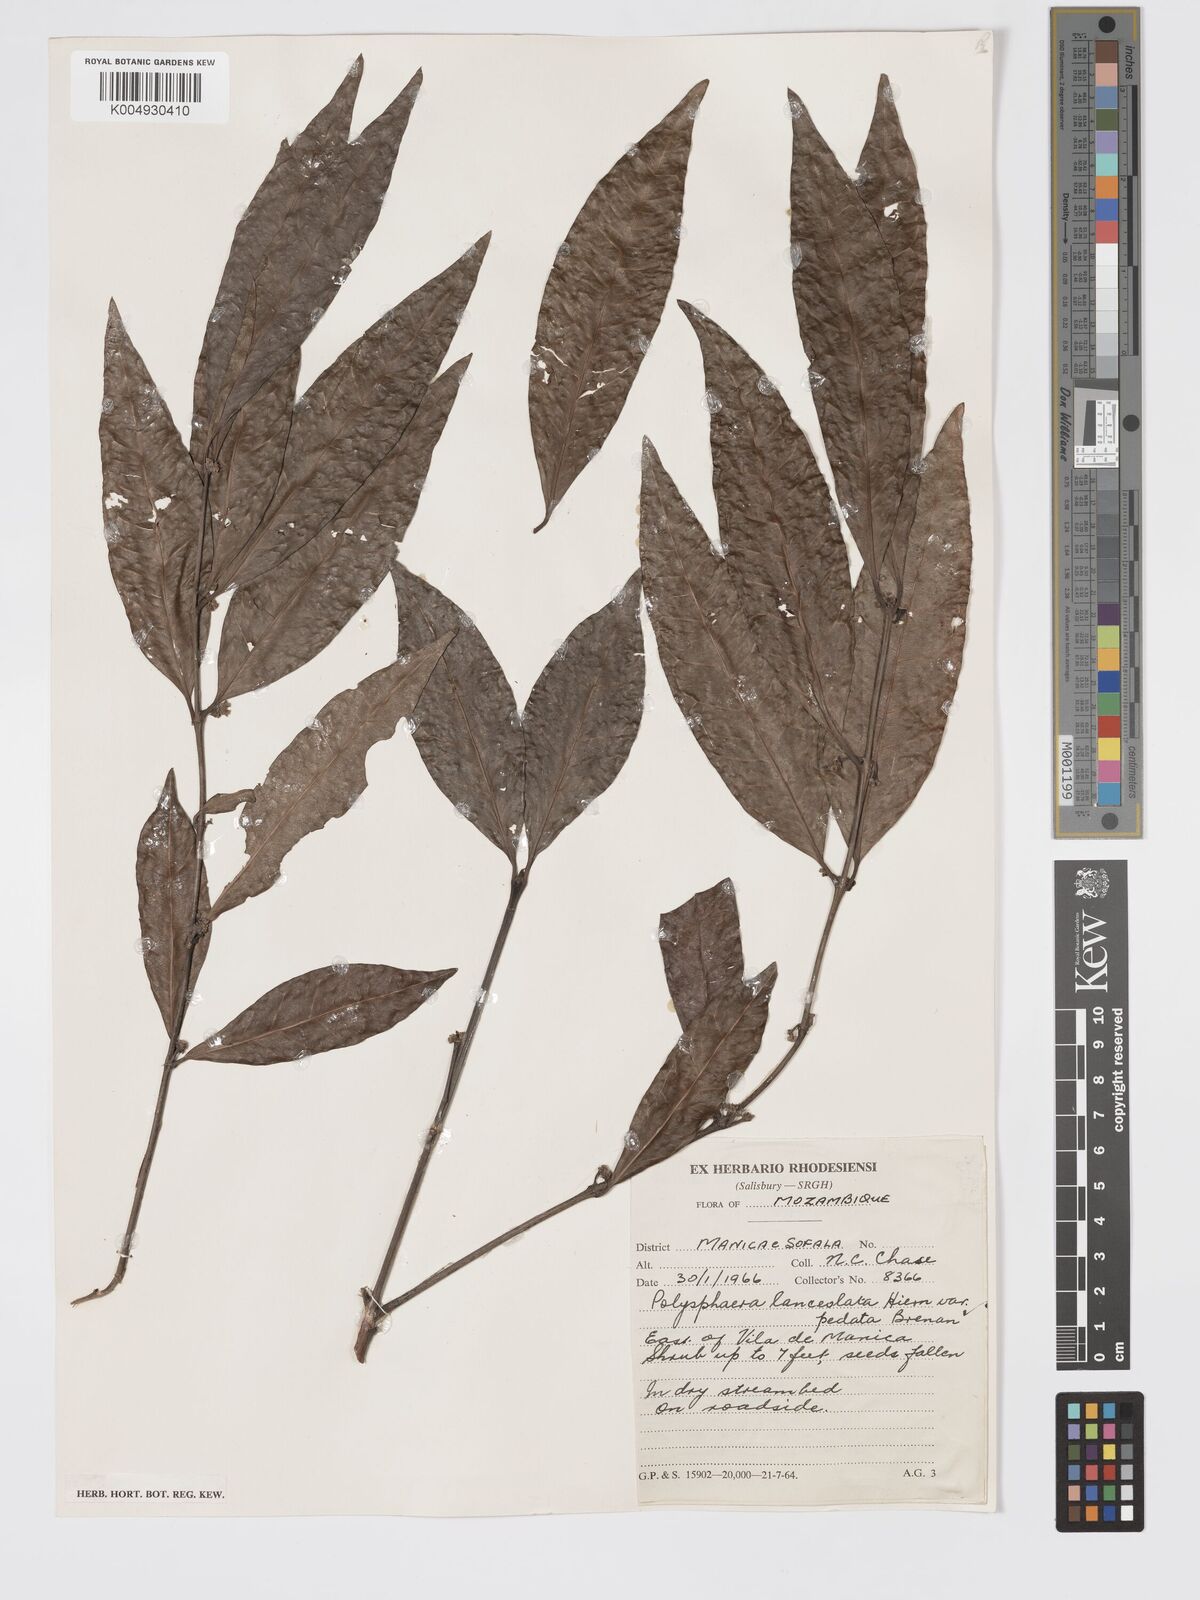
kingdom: Plantae
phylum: Tracheophyta
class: Magnoliopsida
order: Gentianales
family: Rubiaceae
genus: Polysphaeria
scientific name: Polysphaeria lanceolata
